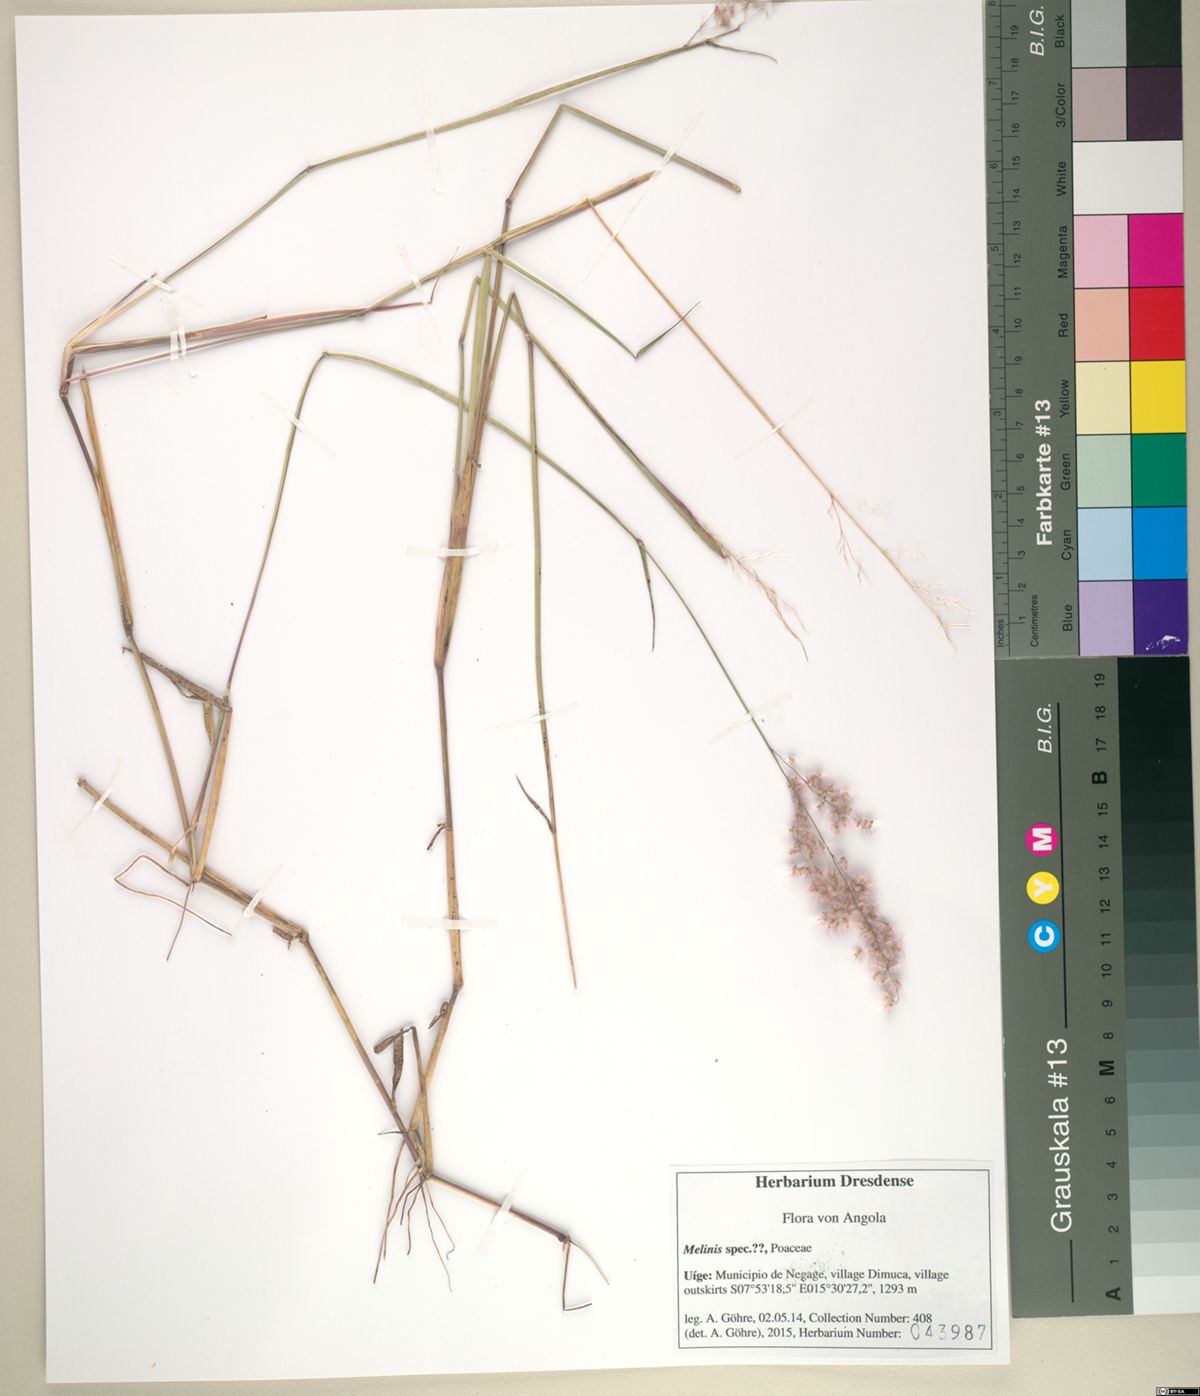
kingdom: Plantae
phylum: Tracheophyta
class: Liliopsida
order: Poales
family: Poaceae
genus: Melinis
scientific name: Melinis repens
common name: Rose natal grass
